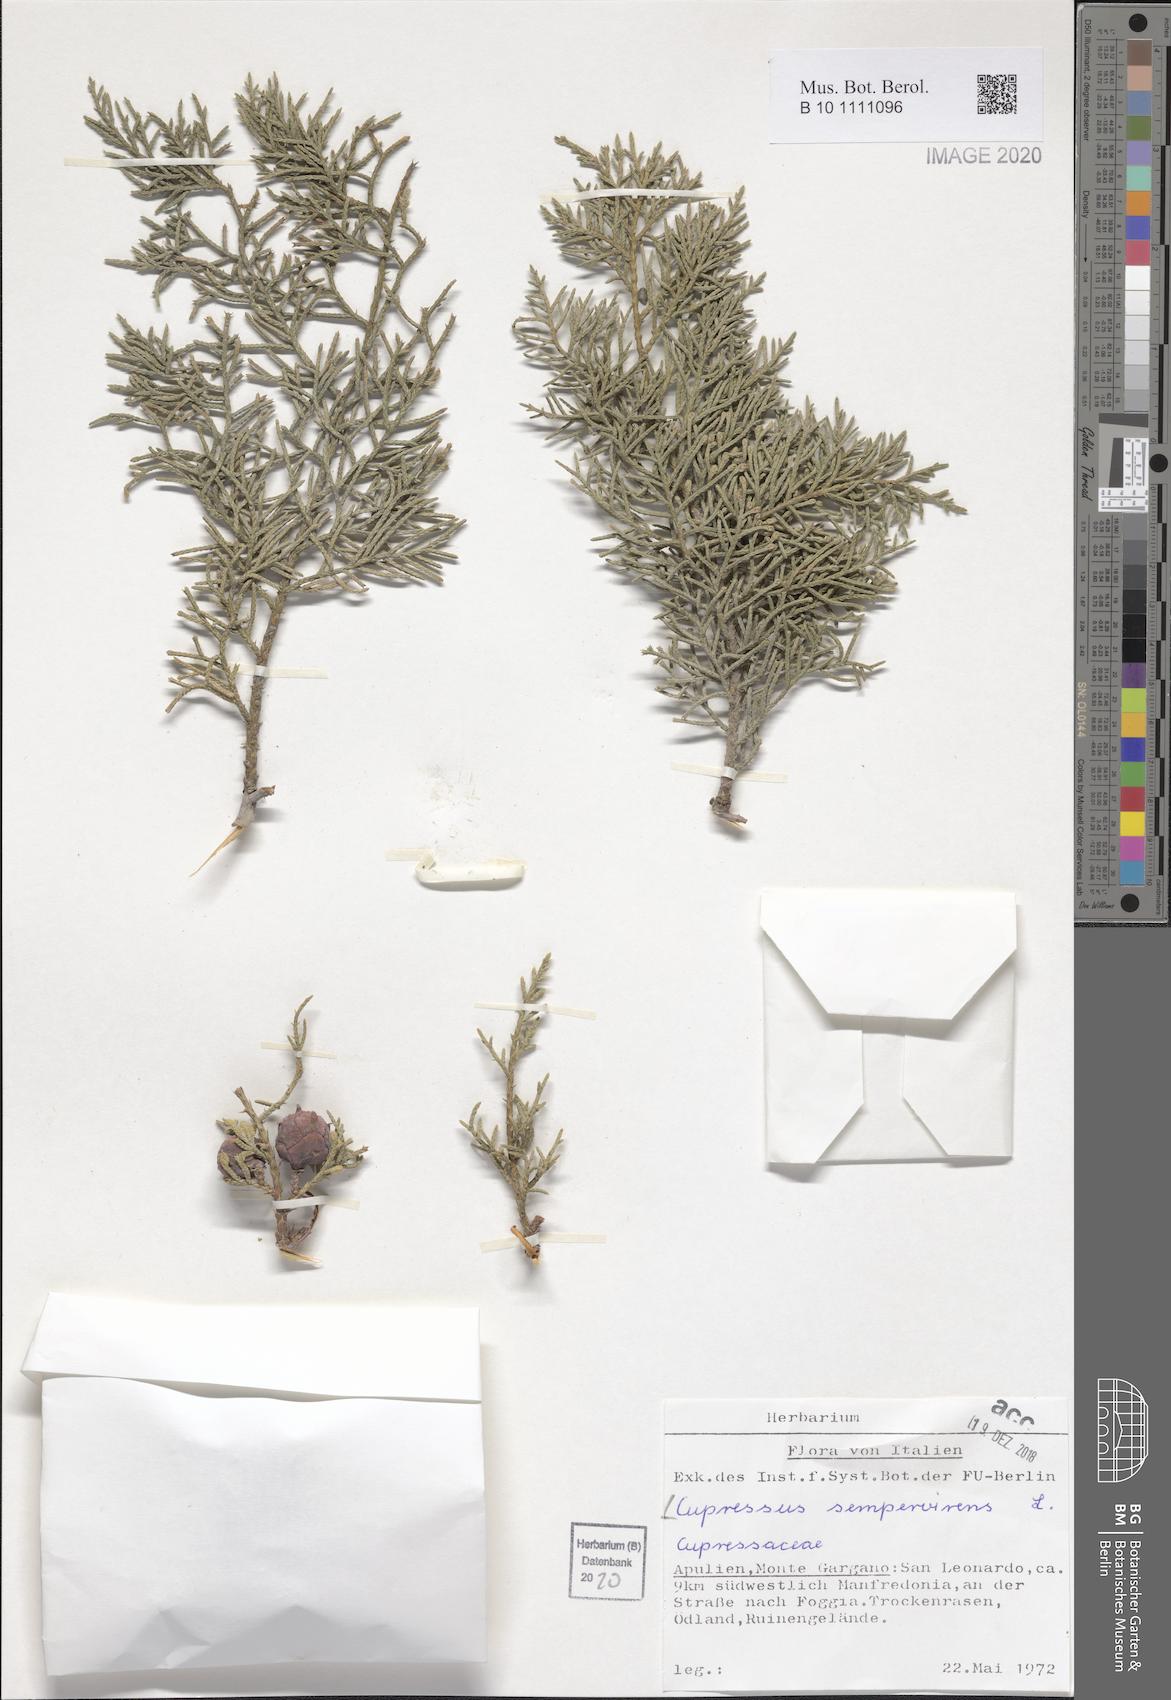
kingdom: Plantae
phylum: Tracheophyta
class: Pinopsida
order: Pinales
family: Cupressaceae
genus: Cupressus
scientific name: Cupressus sempervirens
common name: Italian cypress
